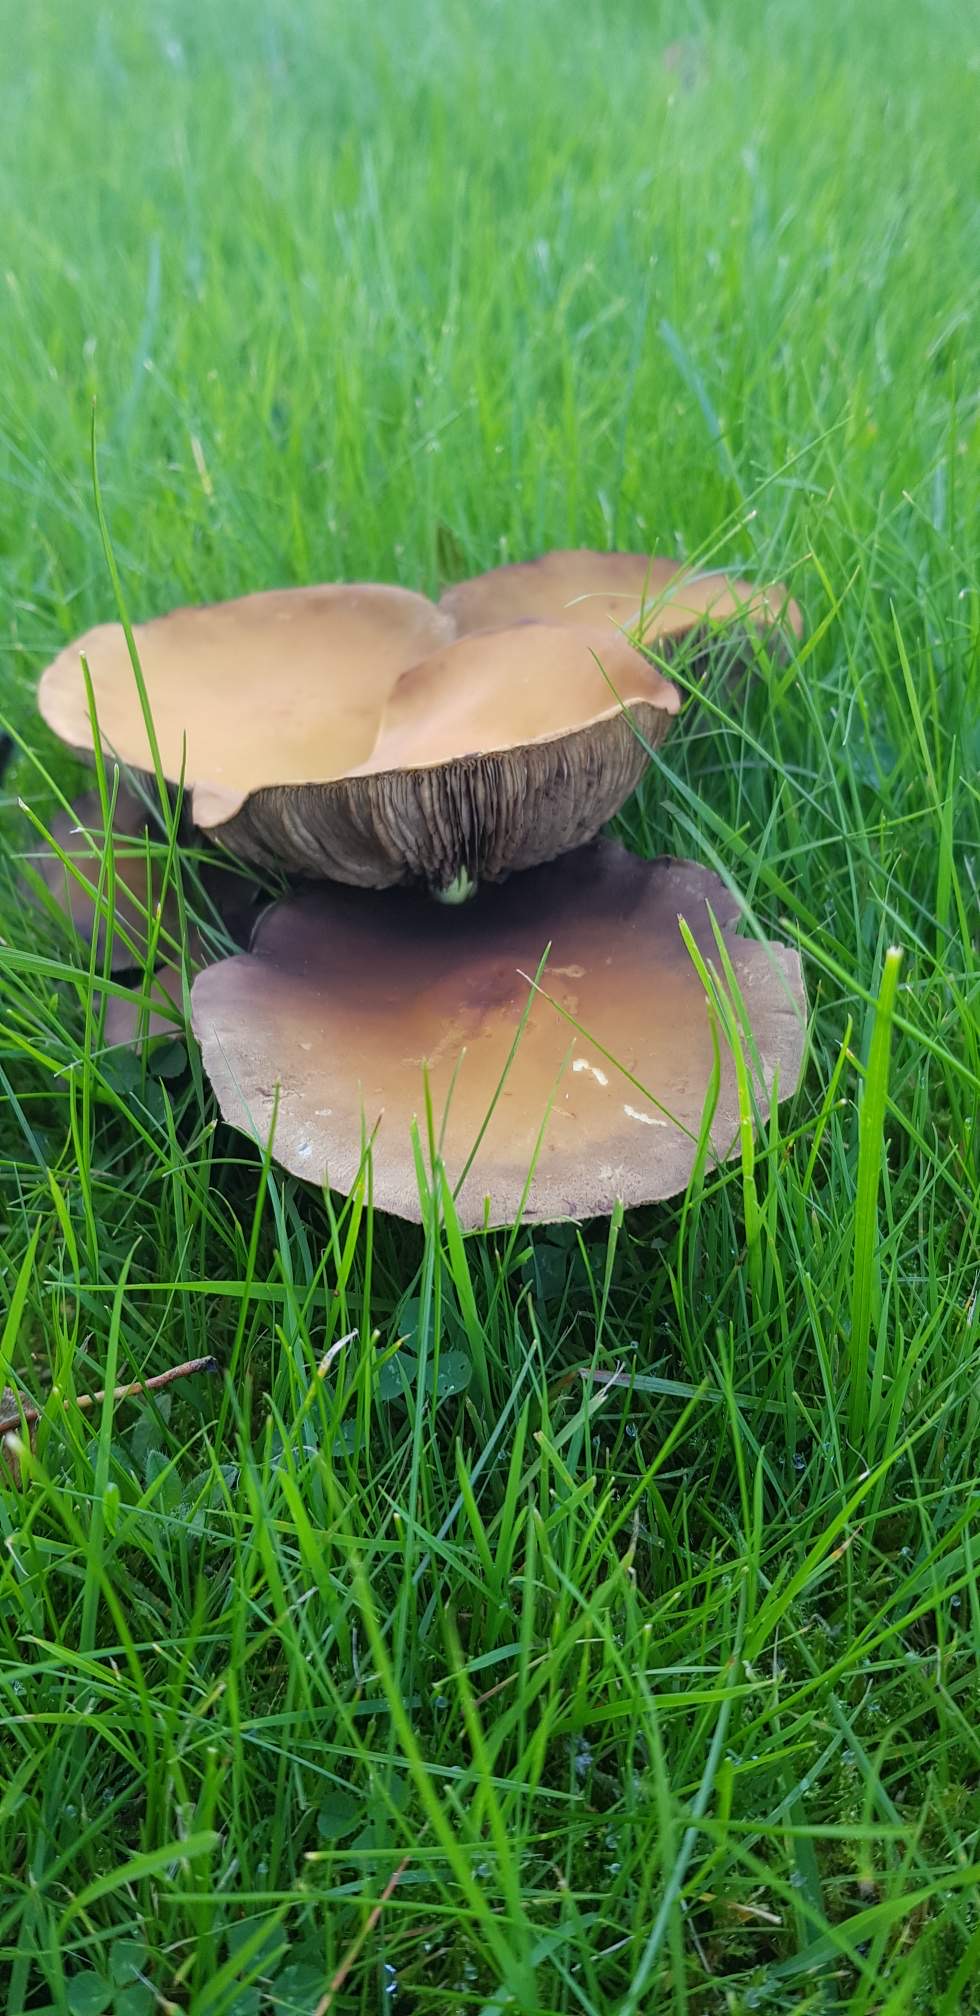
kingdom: Fungi
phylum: Basidiomycota
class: Agaricomycetes
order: Agaricales
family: Strophariaceae
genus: Hypholoma
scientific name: Hypholoma
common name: svovlhat
